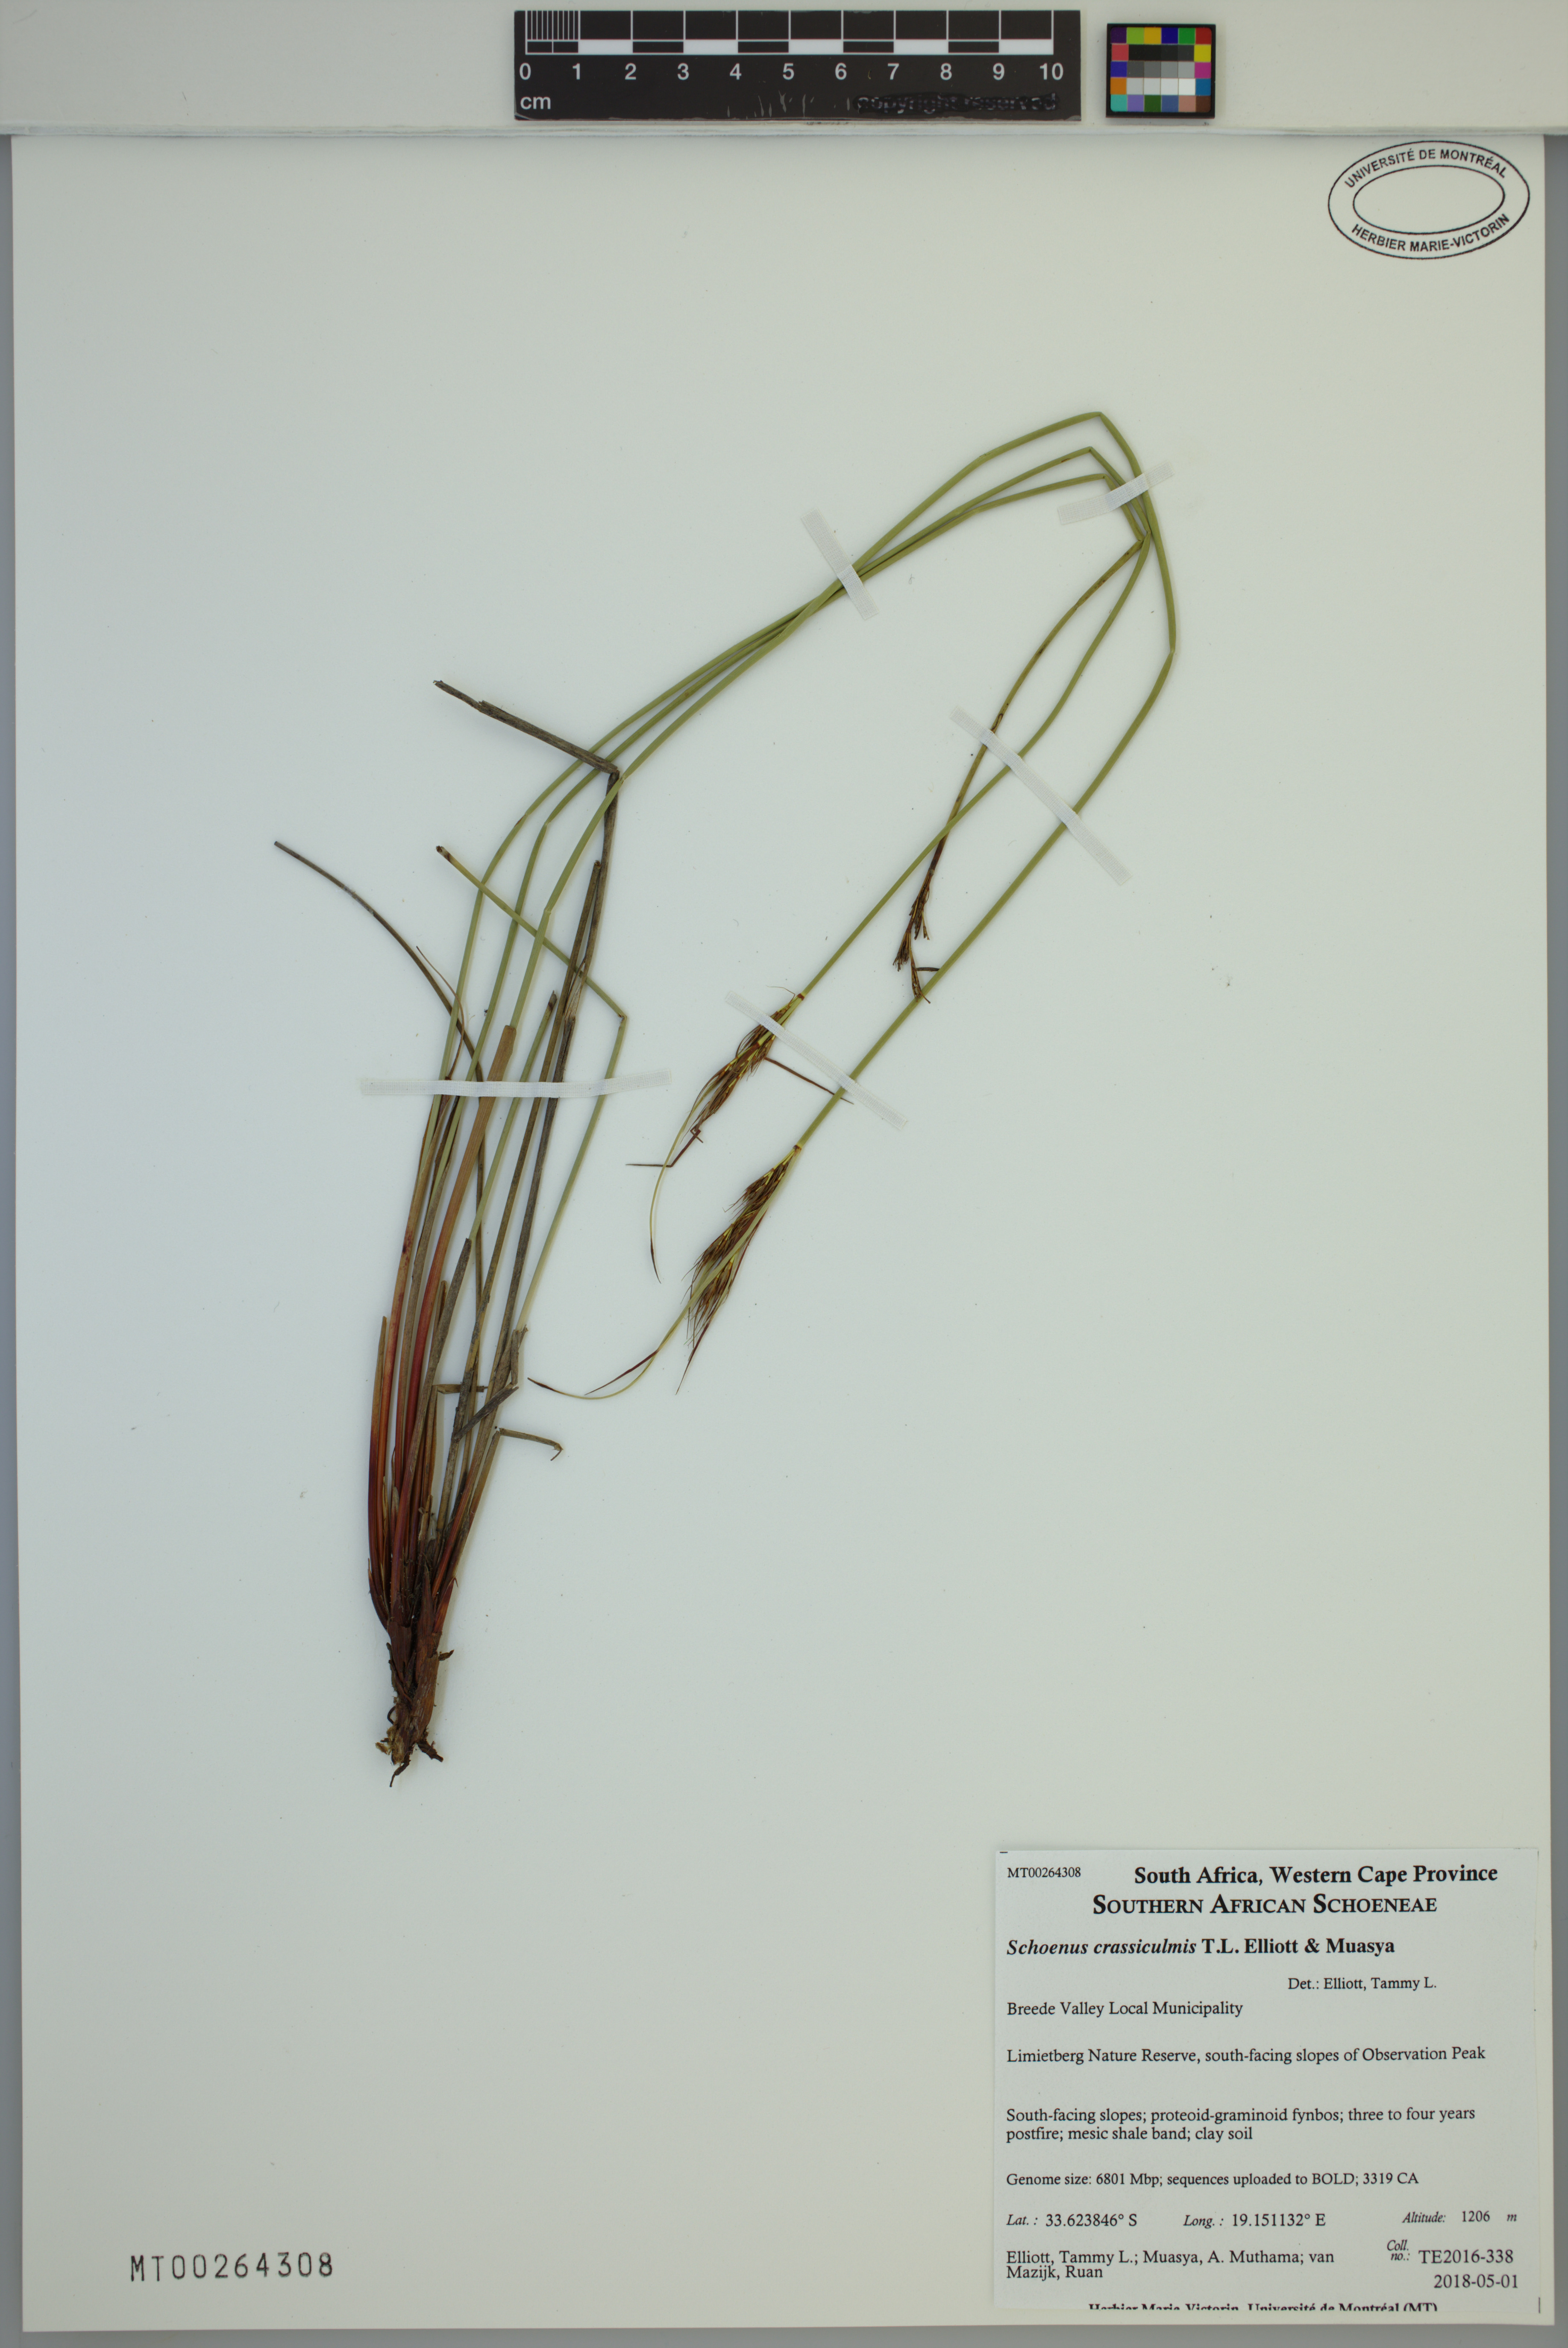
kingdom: Plantae
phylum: Tracheophyta
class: Liliopsida
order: Poales
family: Cyperaceae
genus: Schoenus
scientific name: Schoenus crassiculmis
